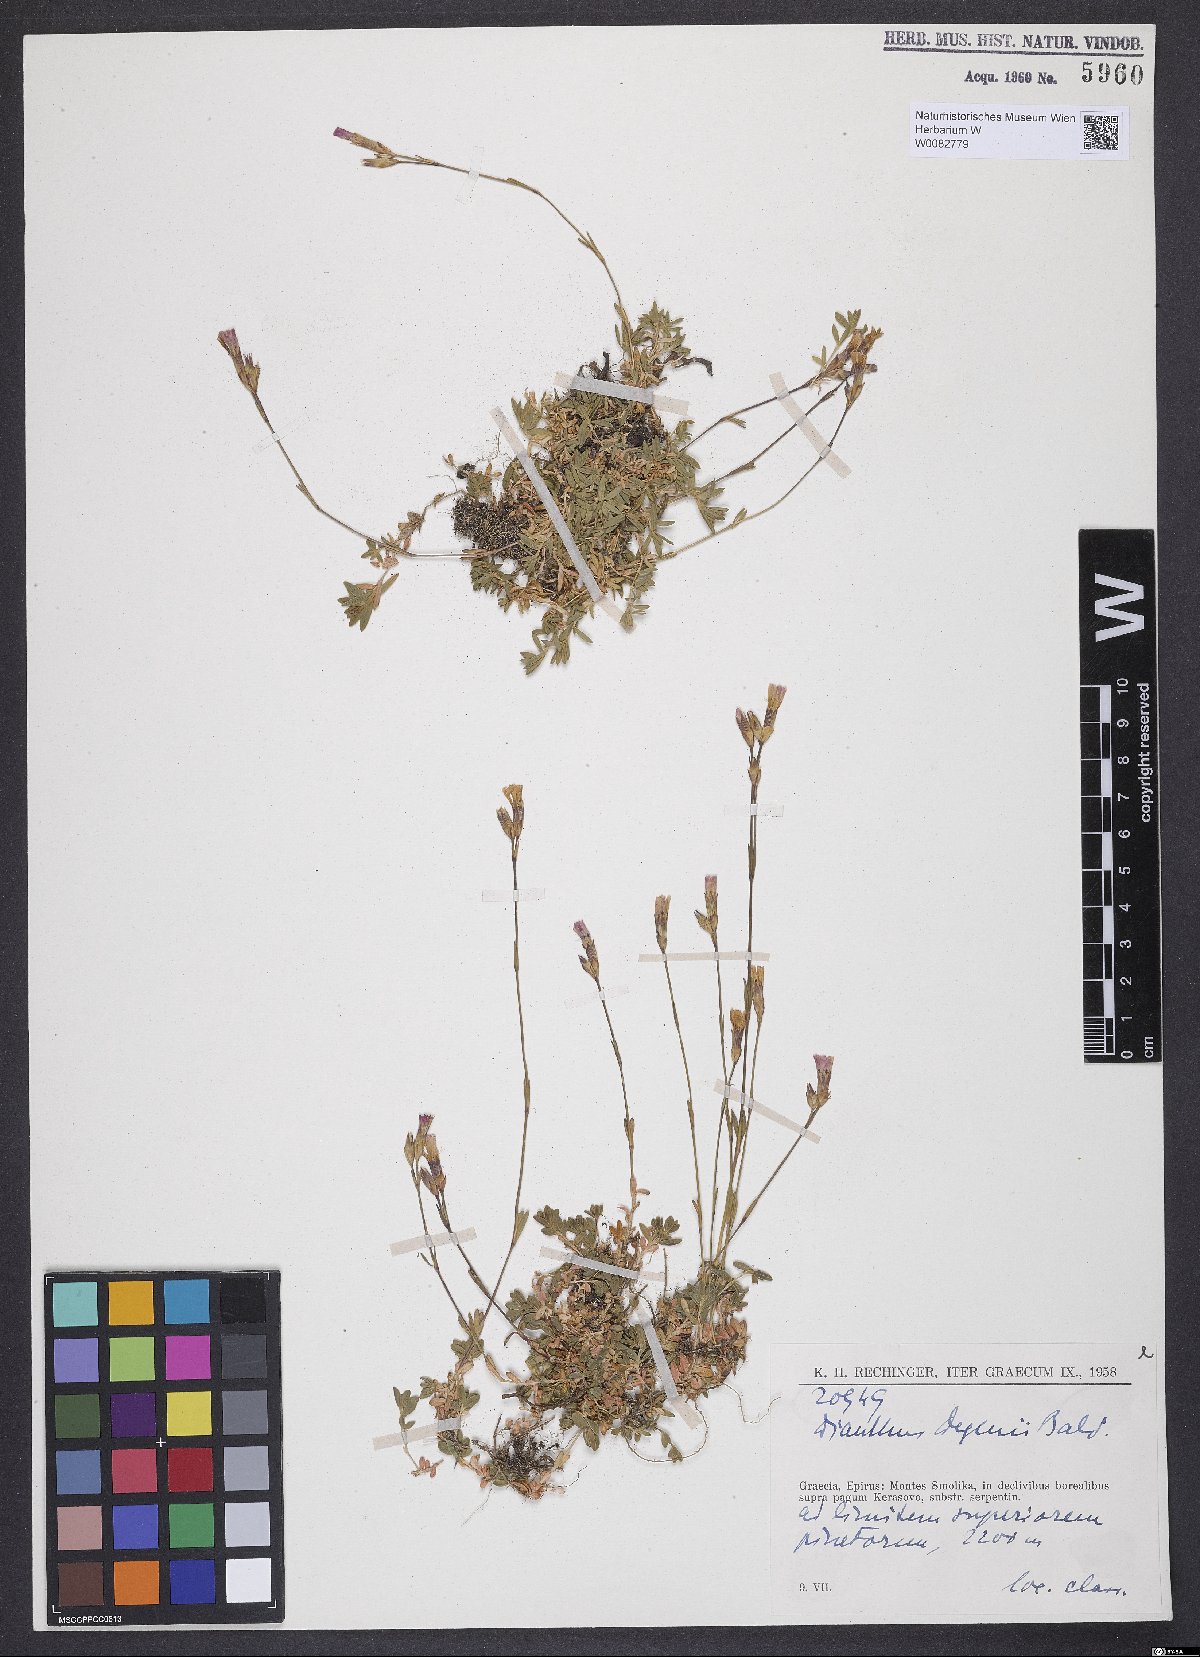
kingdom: Plantae
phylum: Tracheophyta
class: Magnoliopsida
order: Caryophyllales
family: Caryophyllaceae
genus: Dianthus
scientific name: Dianthus deltoides
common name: Maiden pink
